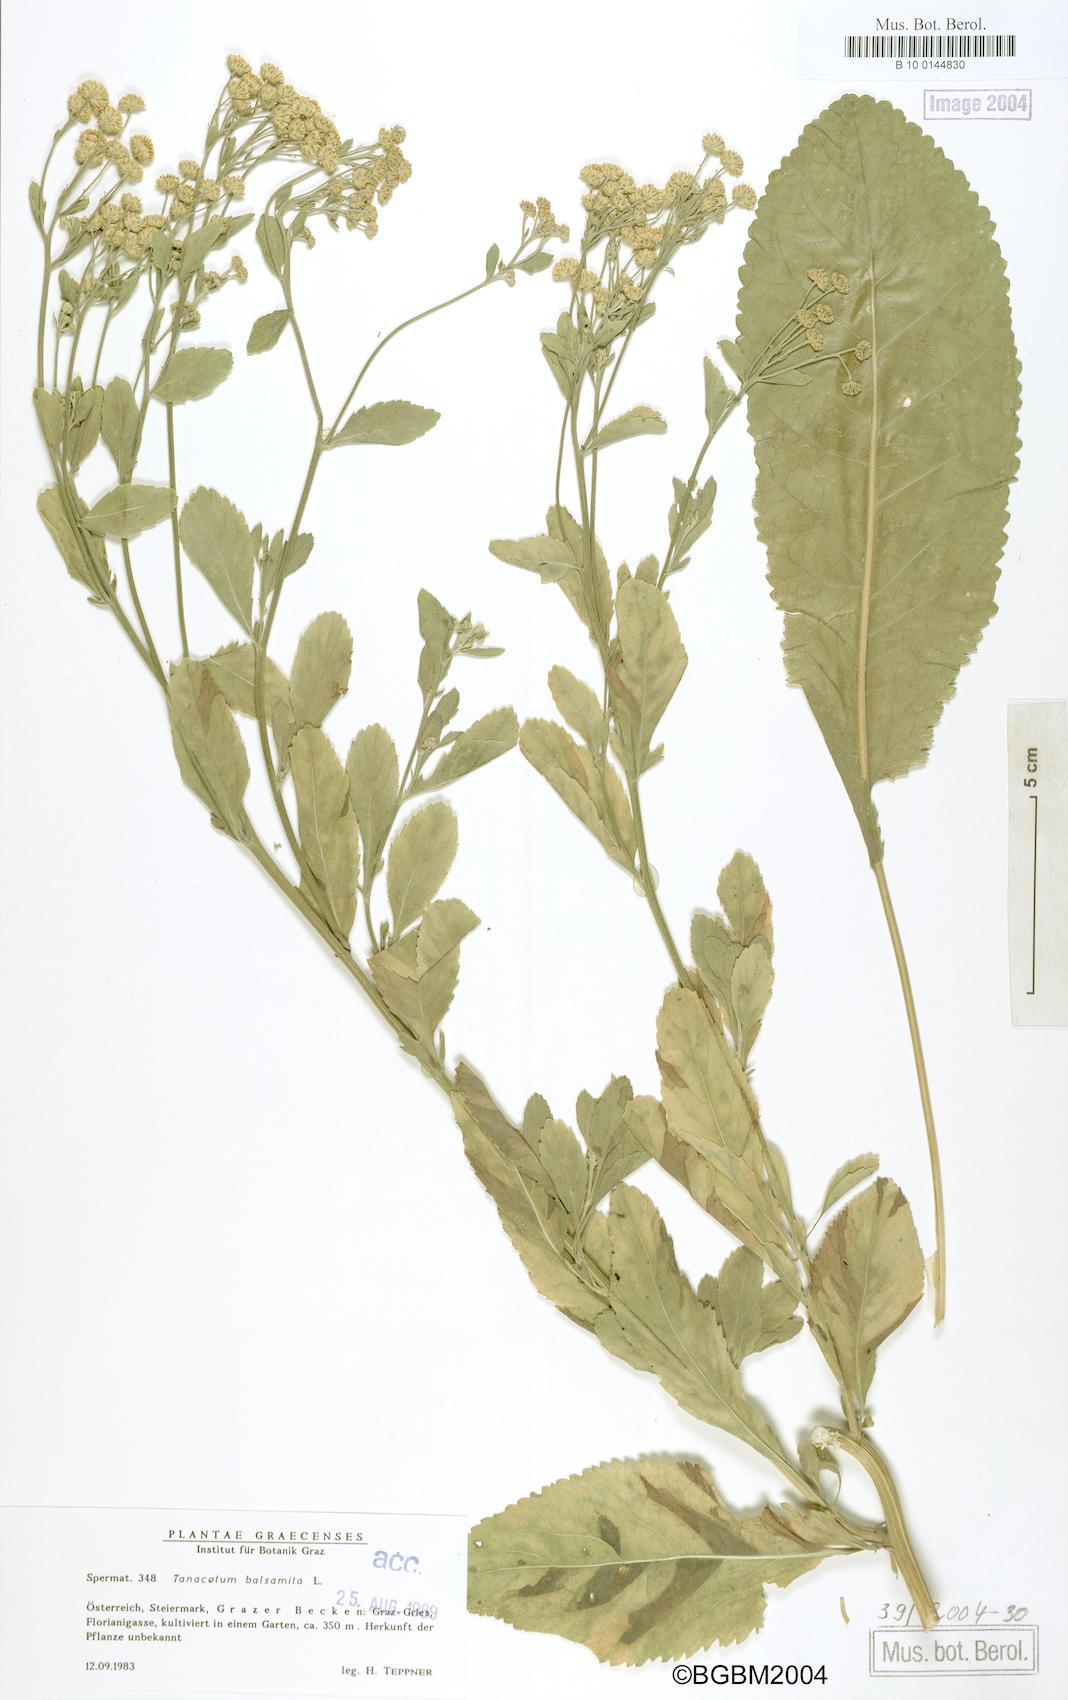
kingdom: Plantae
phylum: Tracheophyta
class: Magnoliopsida
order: Asterales
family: Asteraceae
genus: Tanacetum
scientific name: Tanacetum balsamita
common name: Costmary
